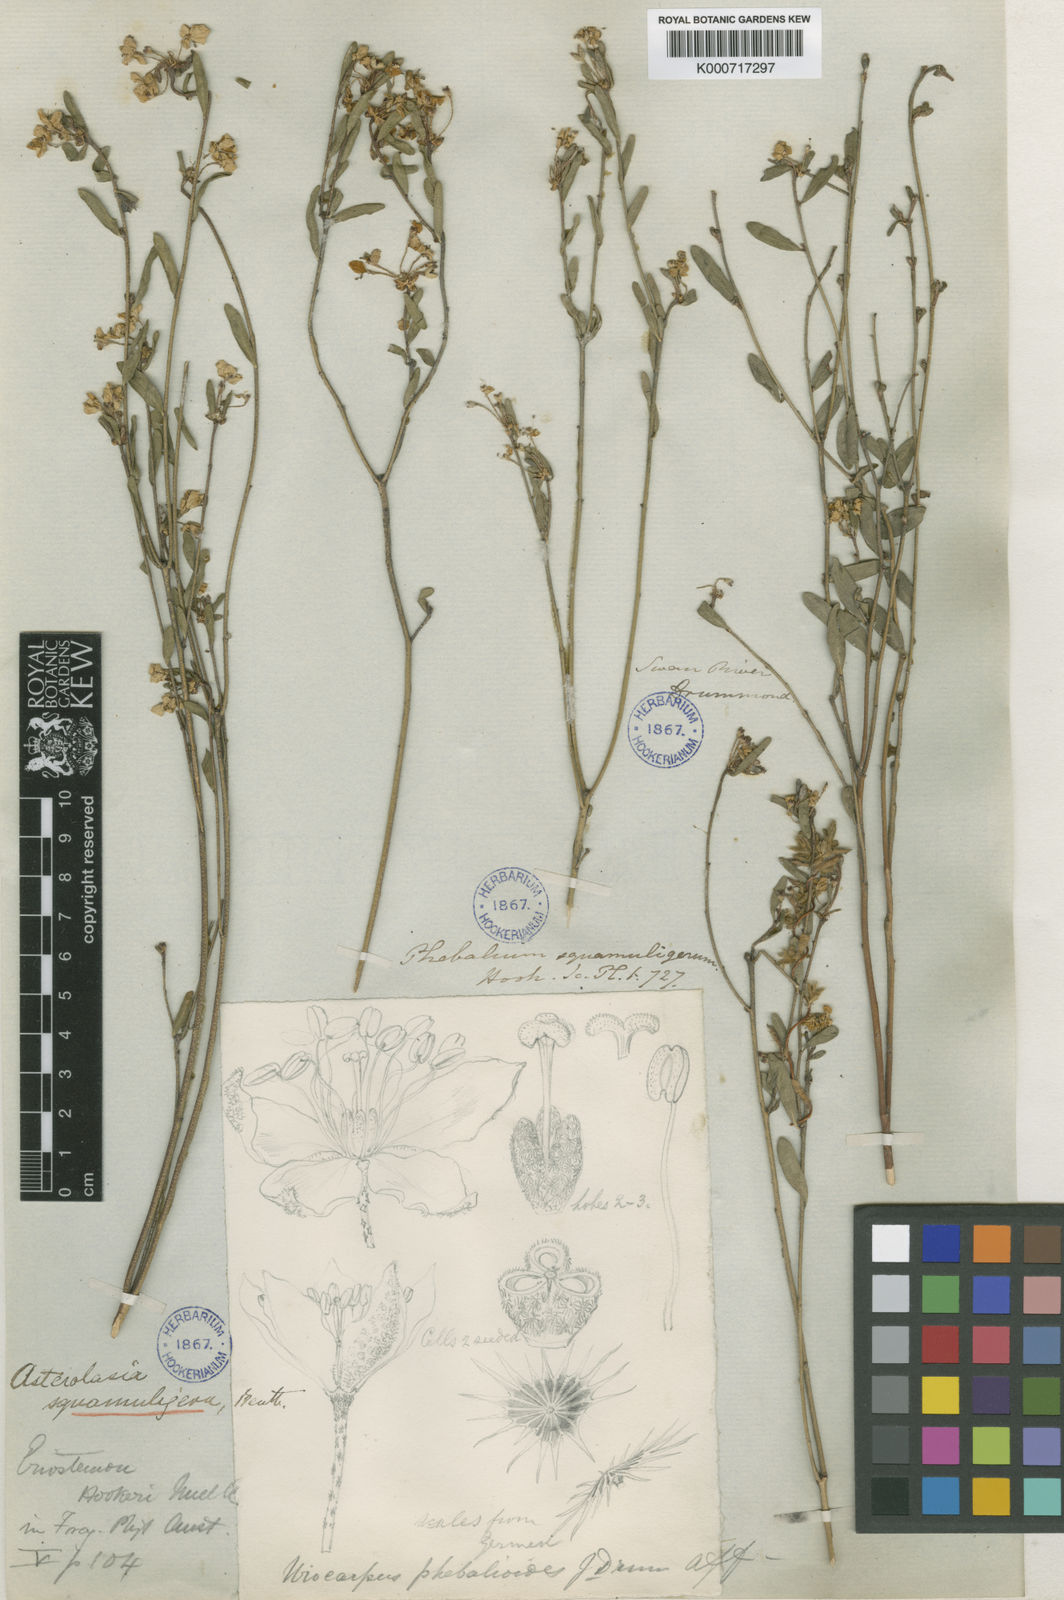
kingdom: Plantae
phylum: Tracheophyta
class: Magnoliopsida
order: Sapindales
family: Rutaceae
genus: Asterolasia
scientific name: Asterolasia squamuligera
